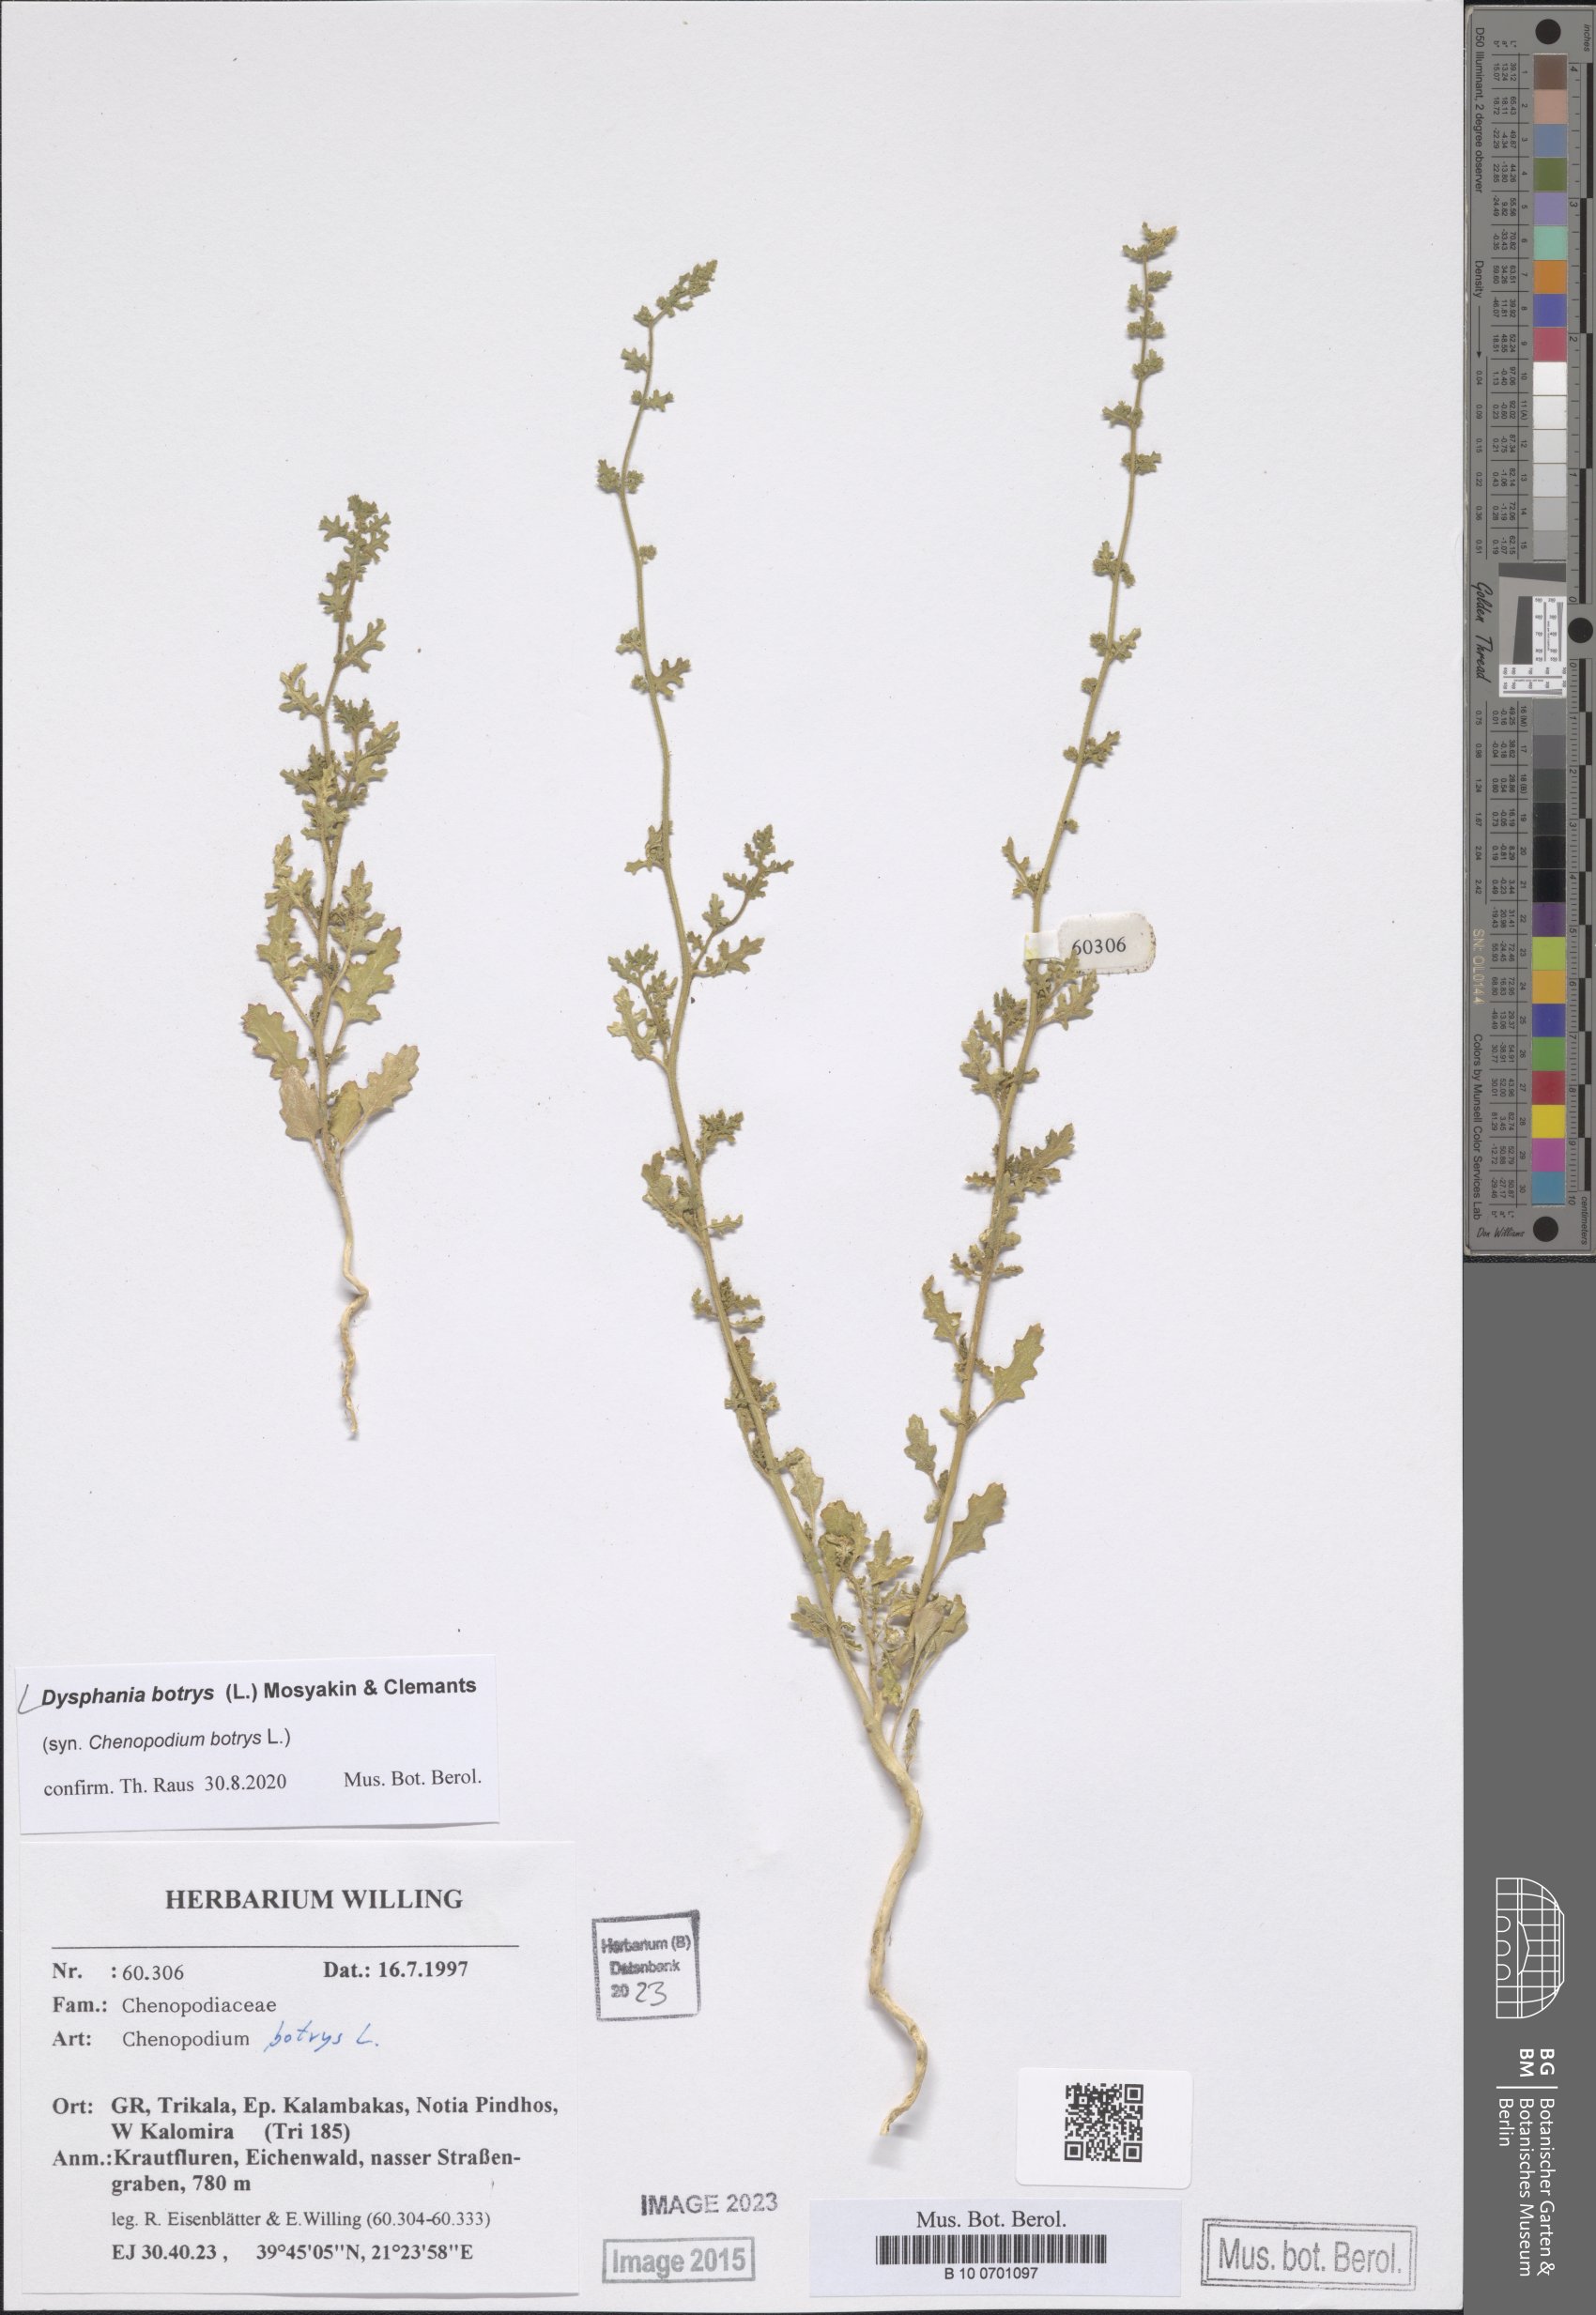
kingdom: Plantae
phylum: Tracheophyta
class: Magnoliopsida
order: Caryophyllales
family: Amaranthaceae
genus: Dysphania
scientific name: Dysphania botrys
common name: Feather-geranium
